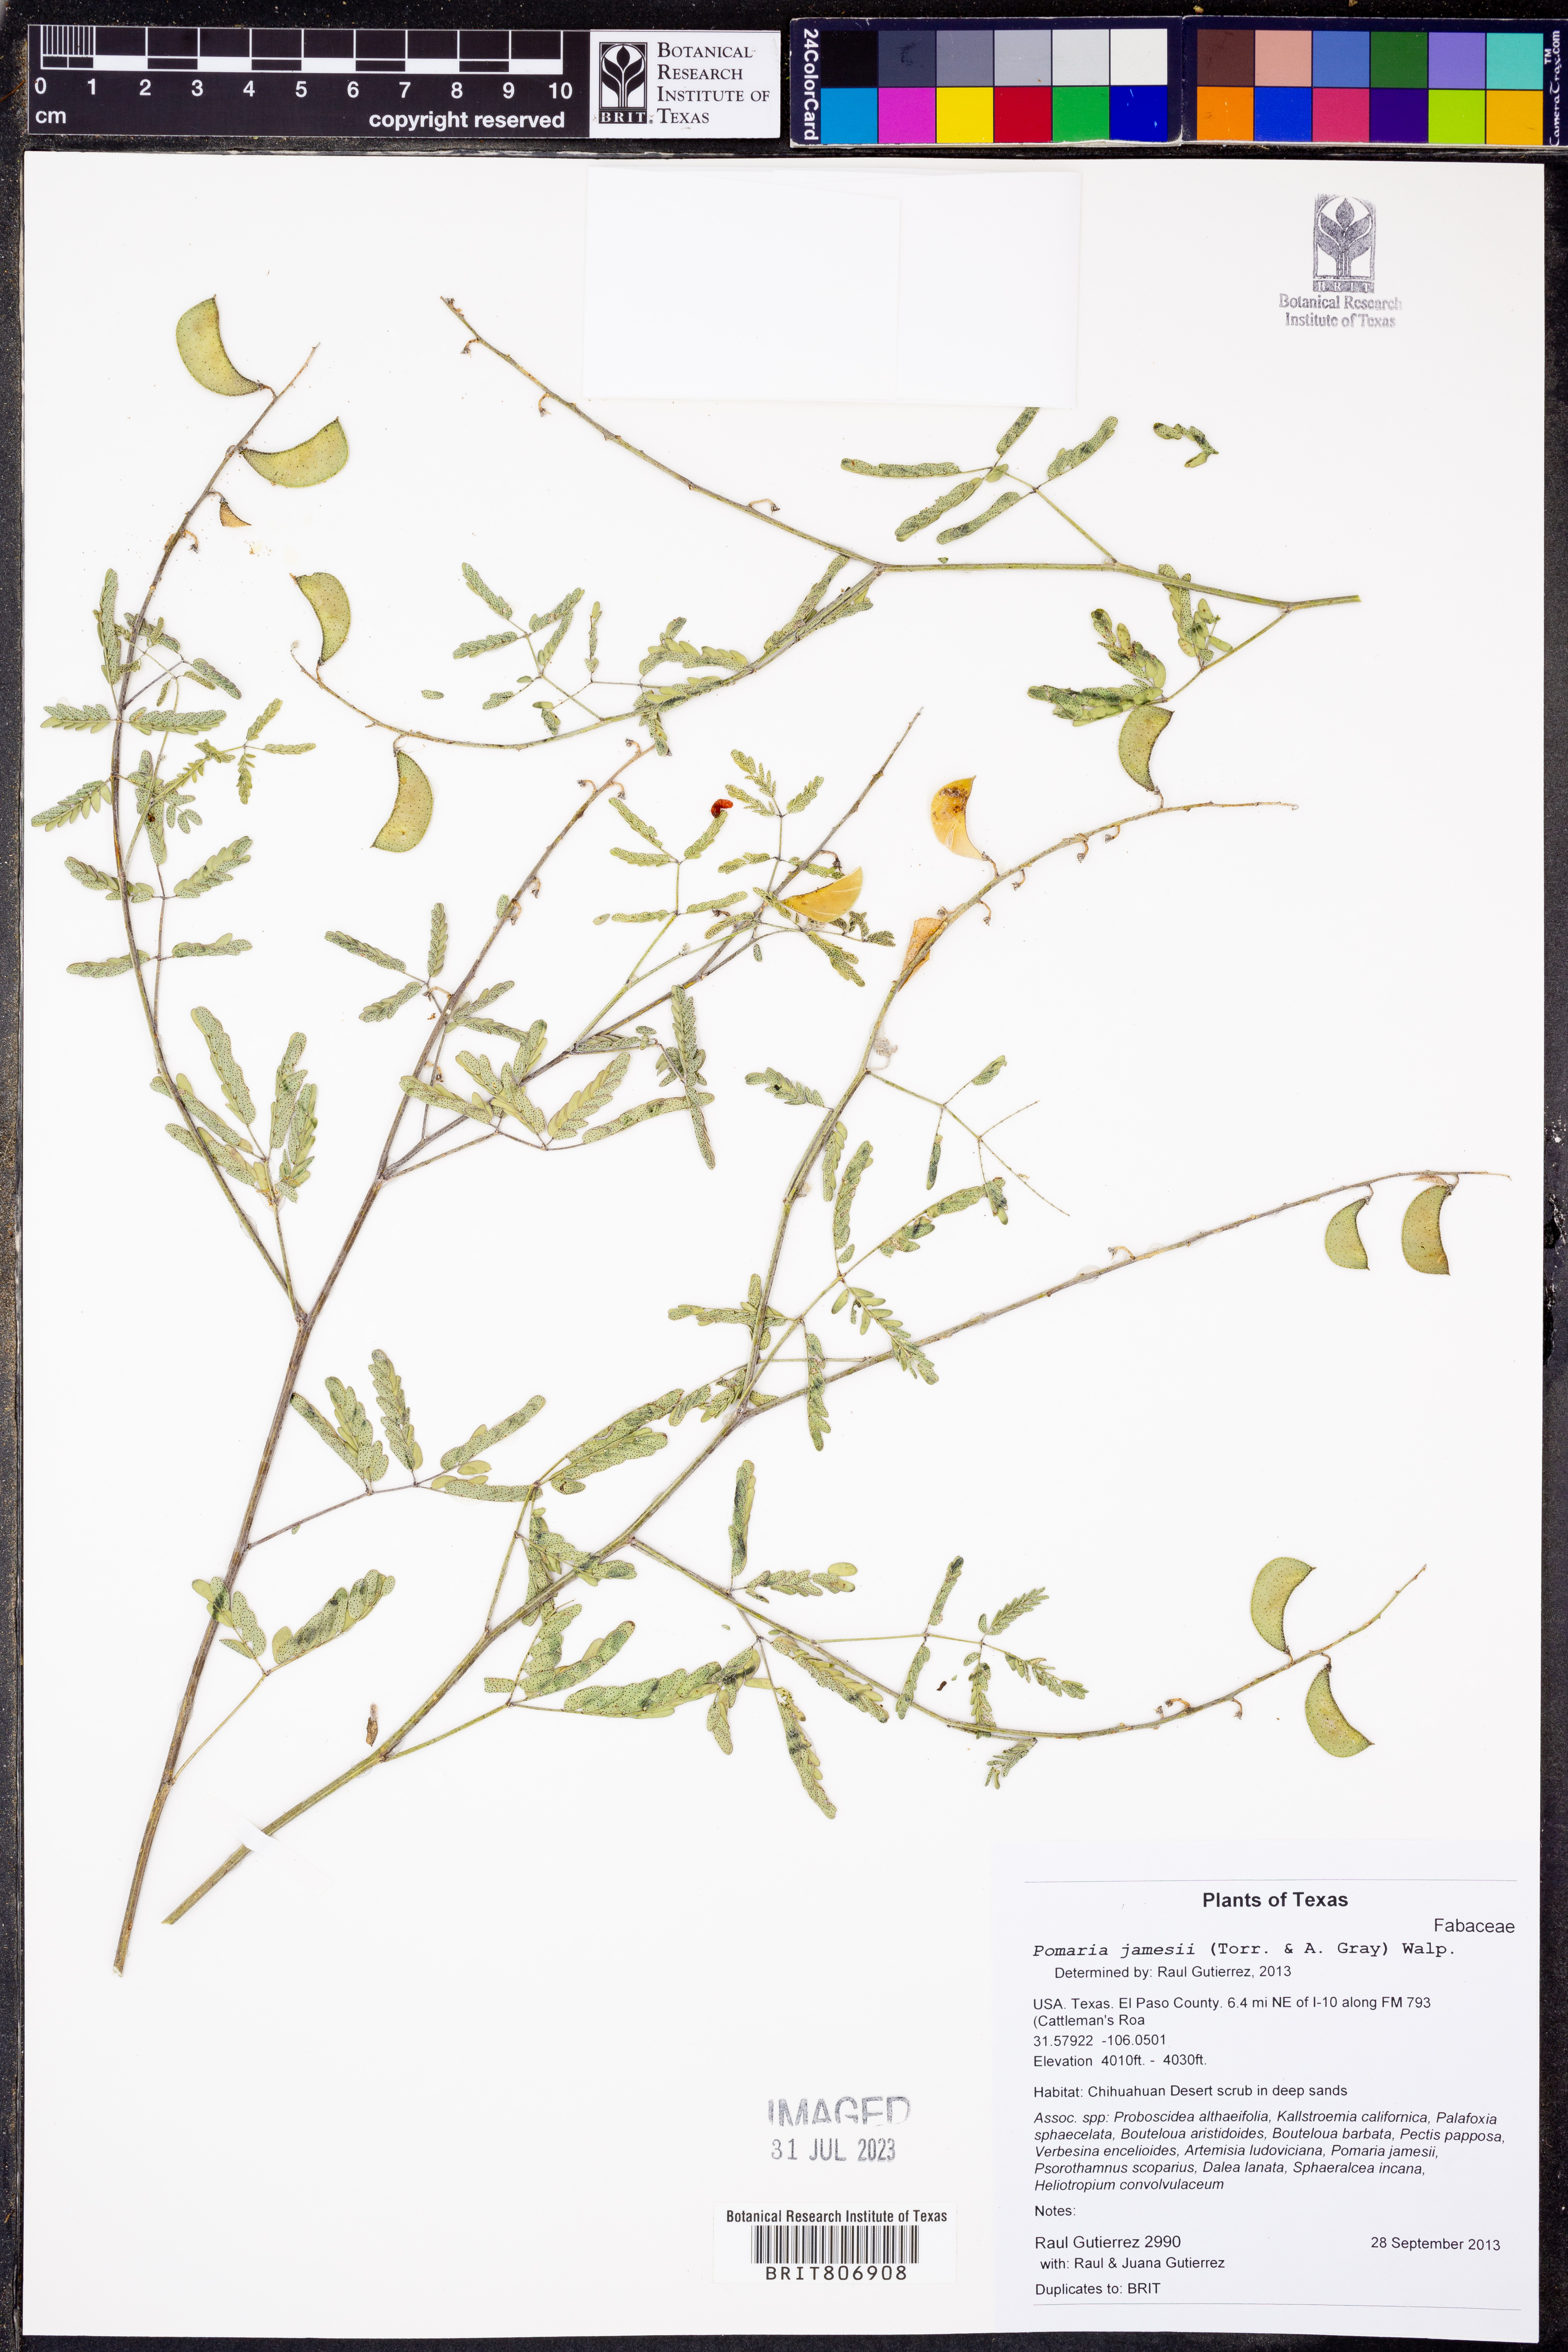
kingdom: Plantae
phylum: Tracheophyta
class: Magnoliopsida
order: Fabales
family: Fabaceae
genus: Pomaria
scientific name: Pomaria jamesii
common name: James' caesalpinia
